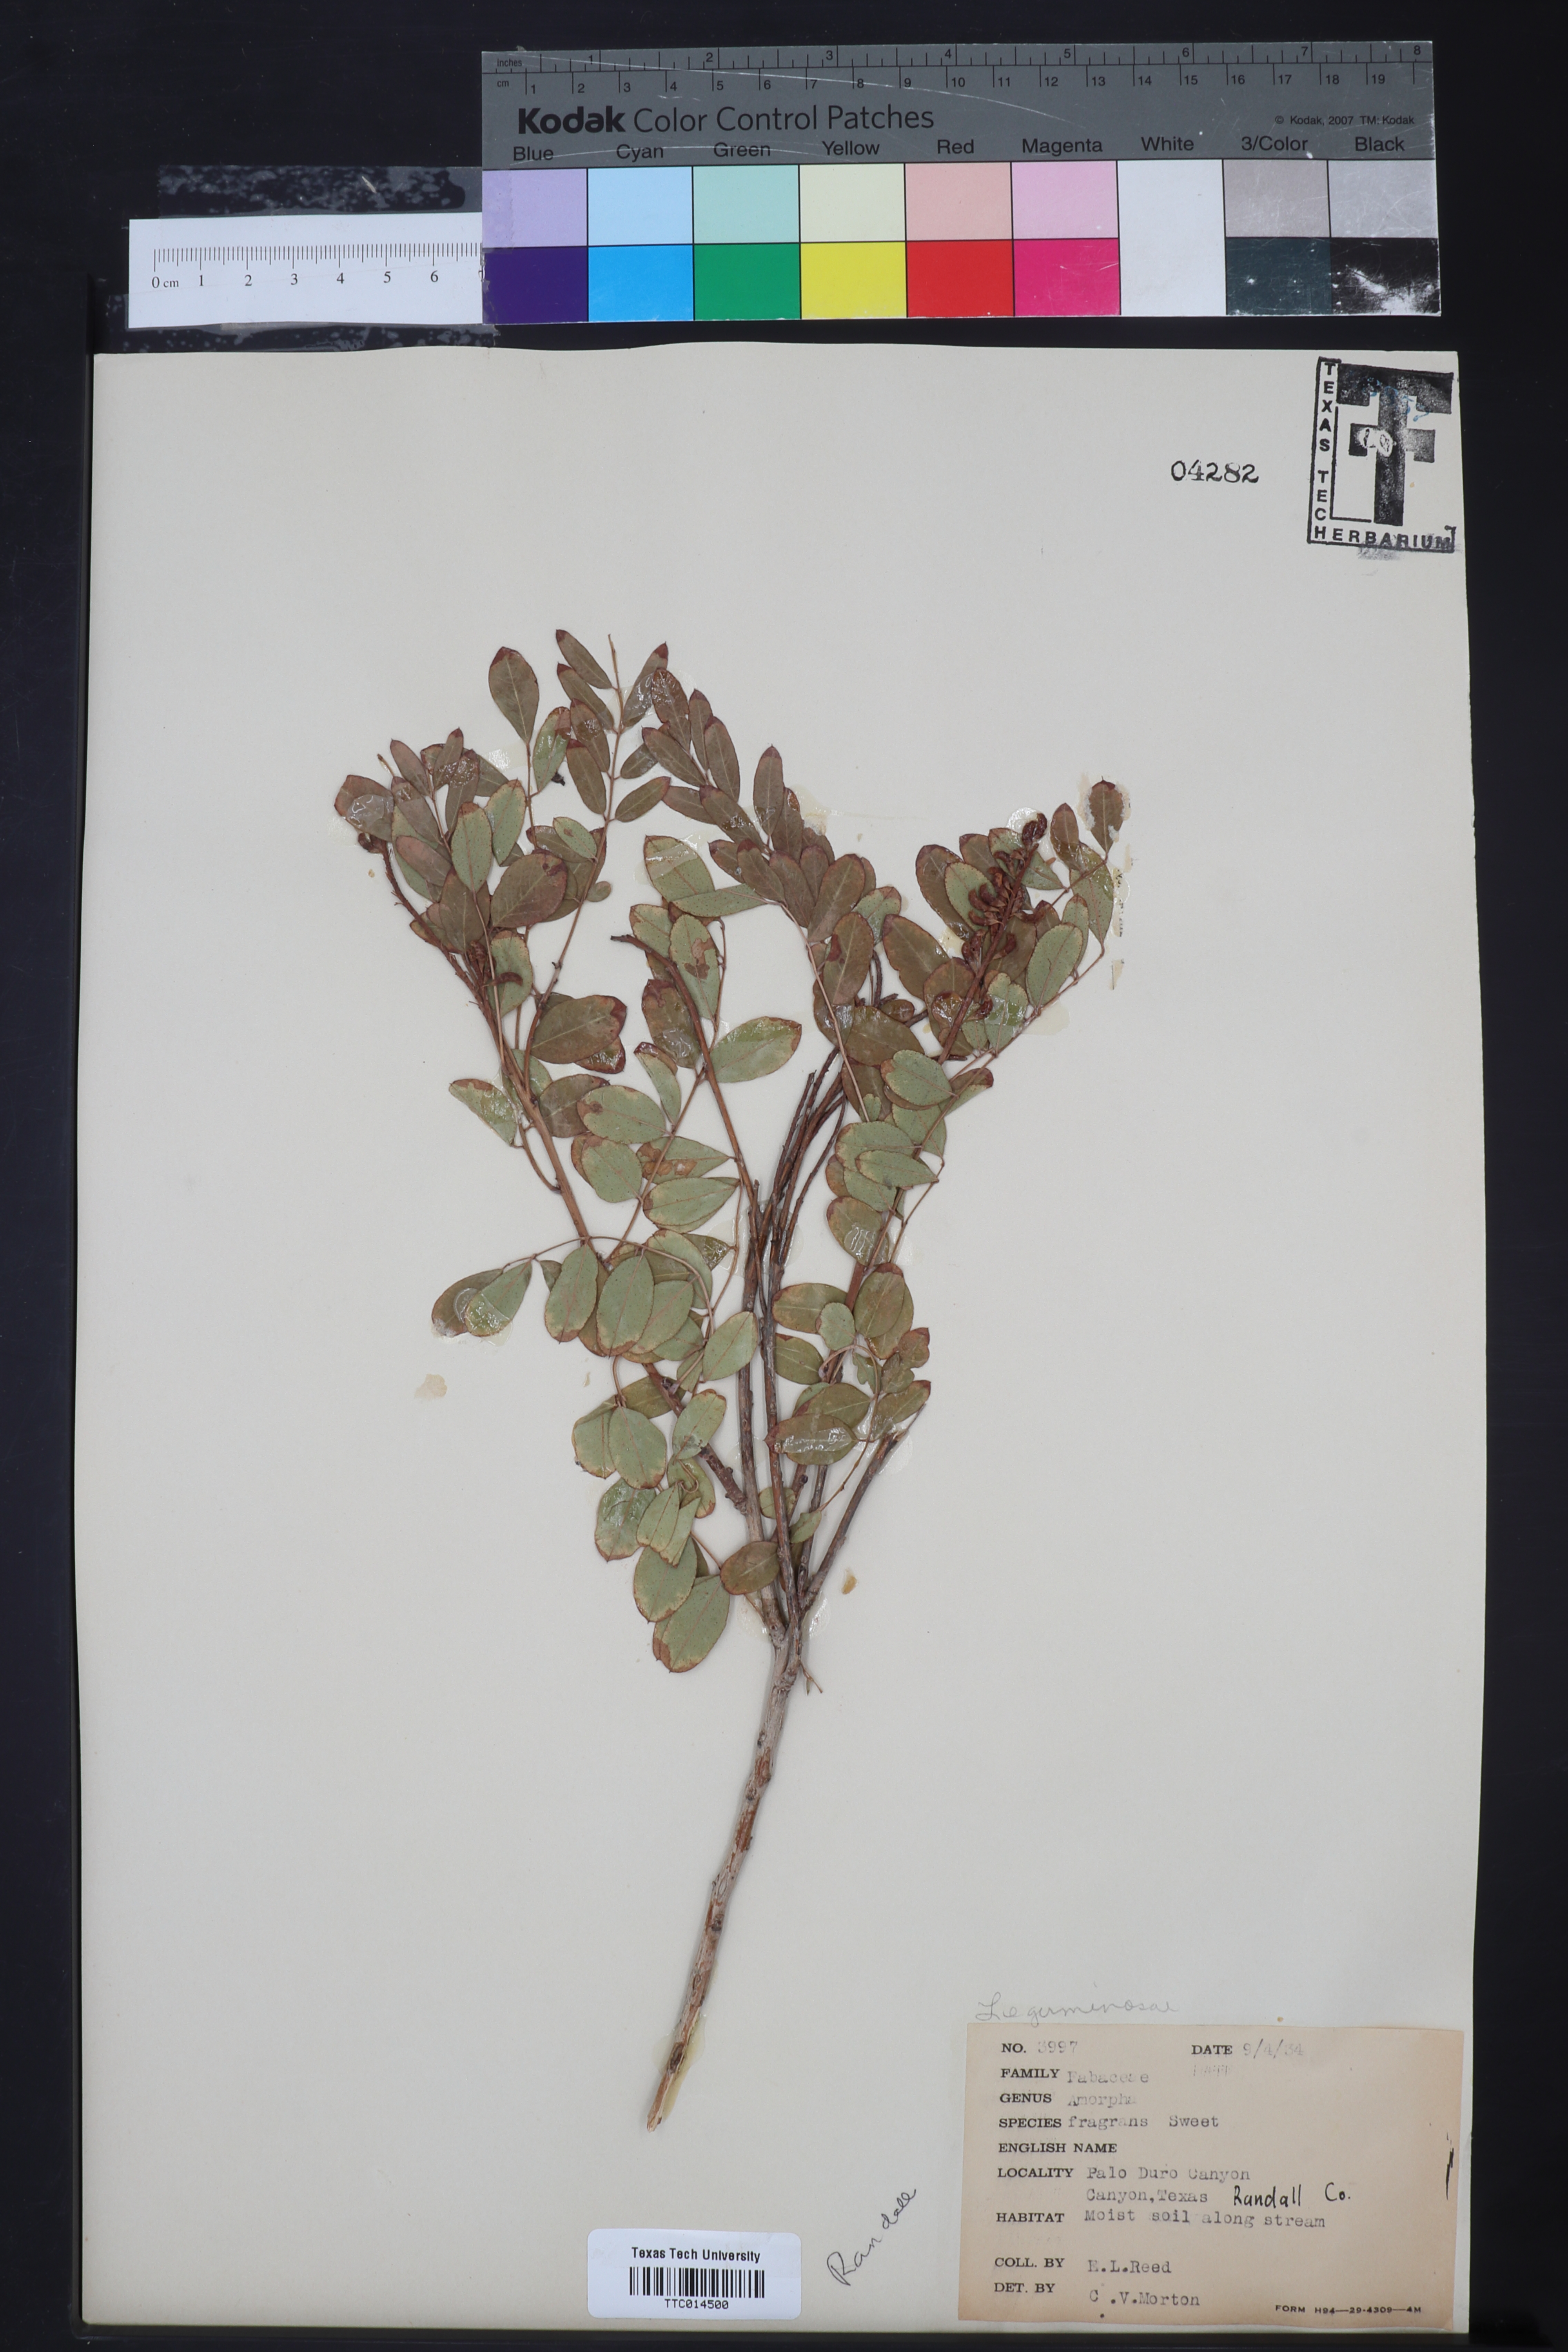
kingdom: Plantae
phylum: Tracheophyta
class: Magnoliopsida
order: Fabales
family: Fabaceae
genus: Amorpha
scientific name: Amorpha fruticosa
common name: False indigo
